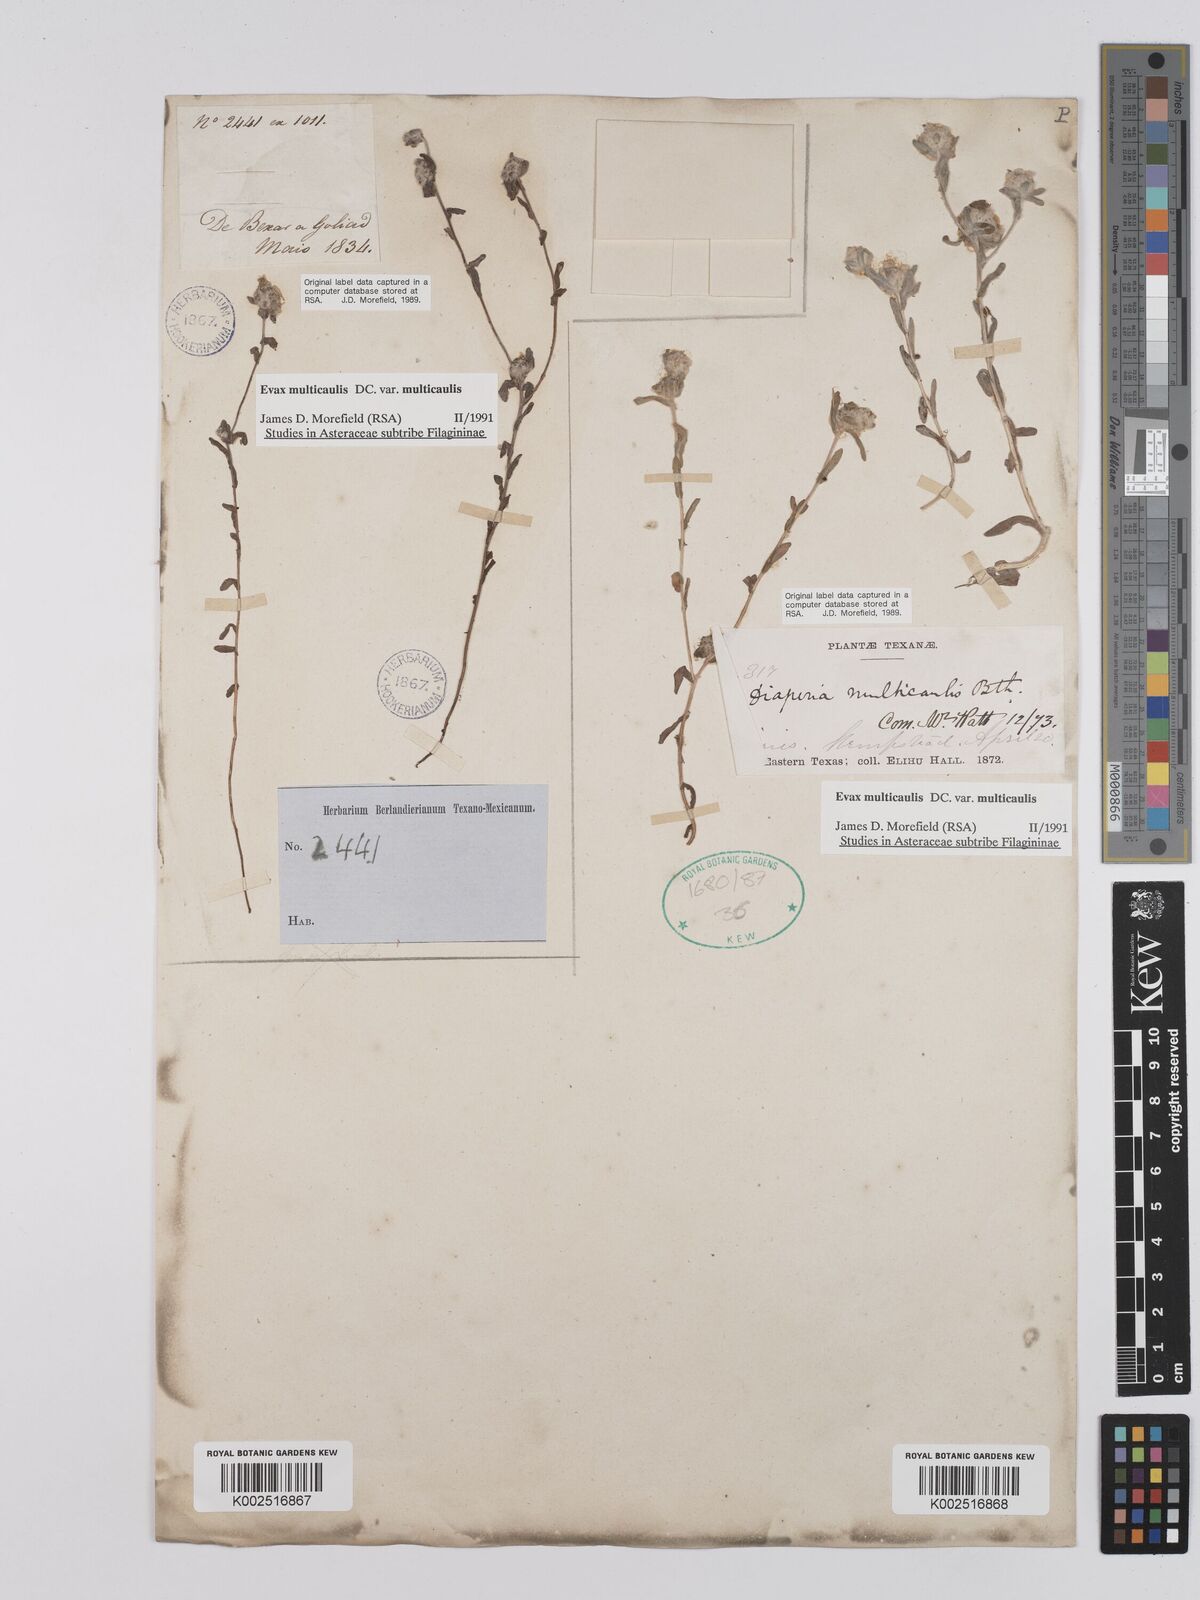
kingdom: Plantae
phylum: Tracheophyta
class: Magnoliopsida
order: Asterales
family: Asteraceae
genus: Filago
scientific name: Filago
